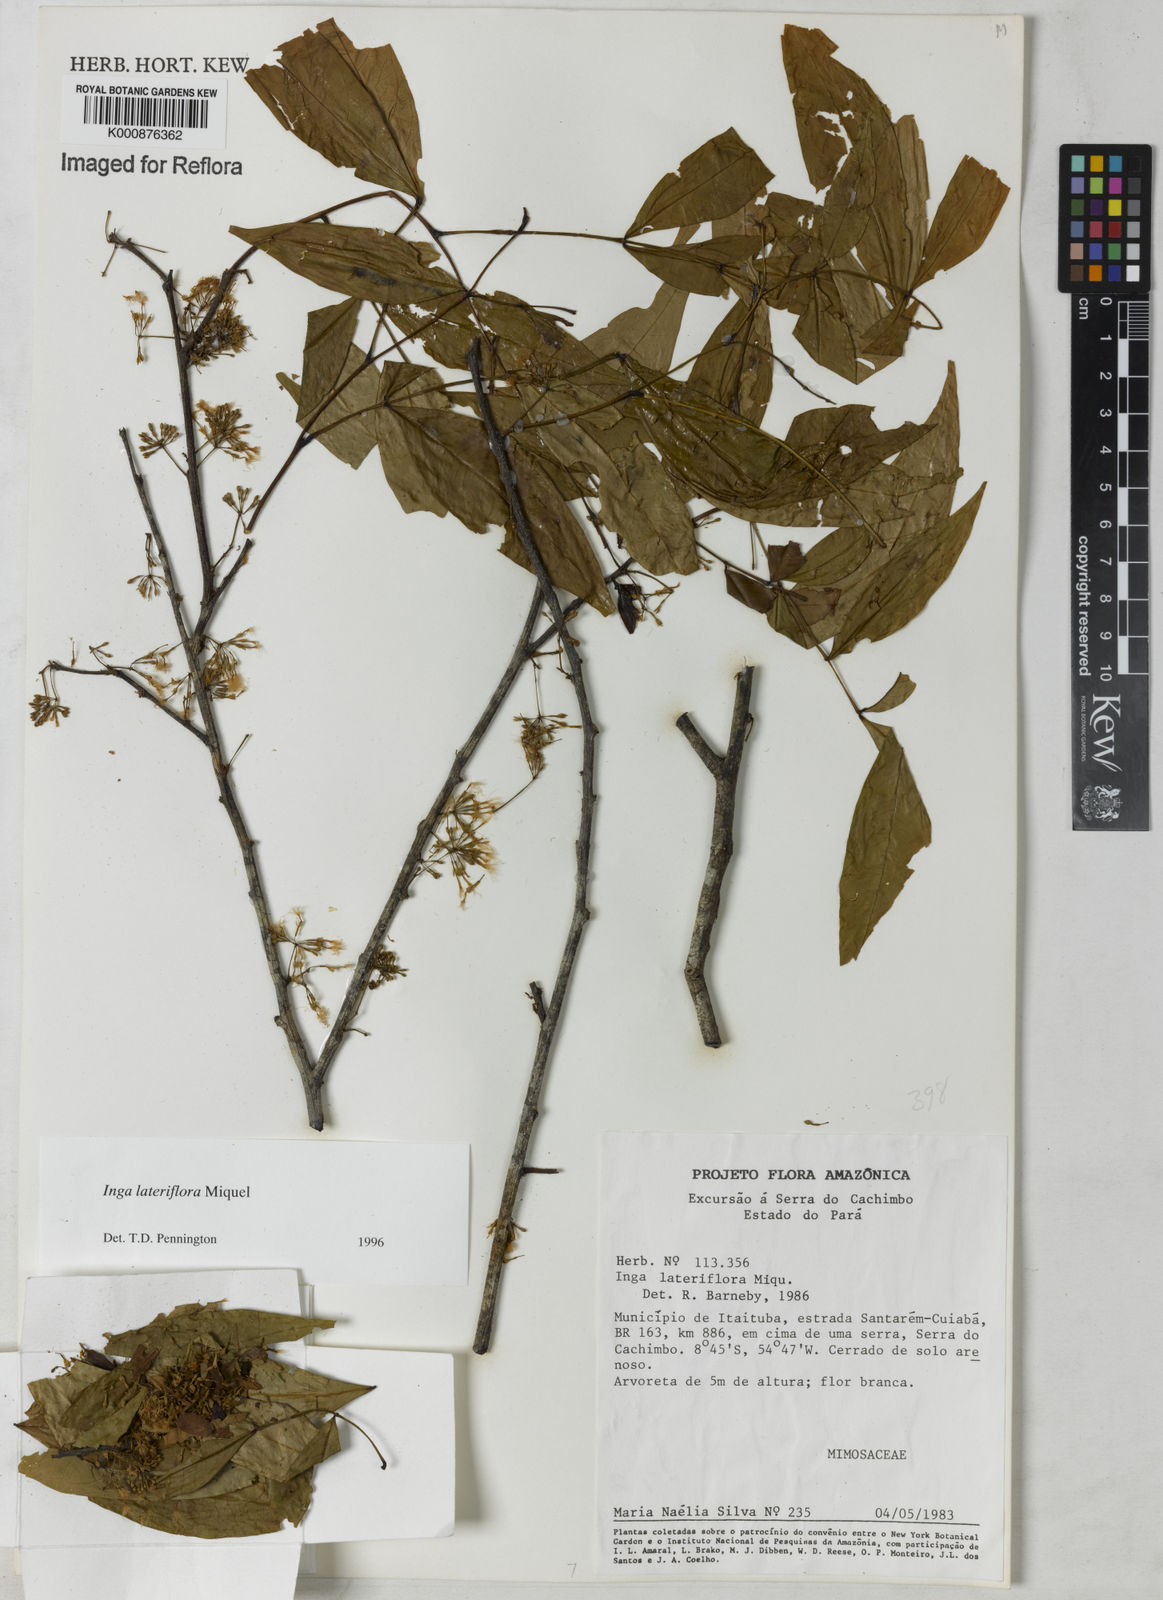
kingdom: Plantae
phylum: Tracheophyta
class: Magnoliopsida
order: Fabales
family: Fabaceae
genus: Inga
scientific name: Inga lateriflora
